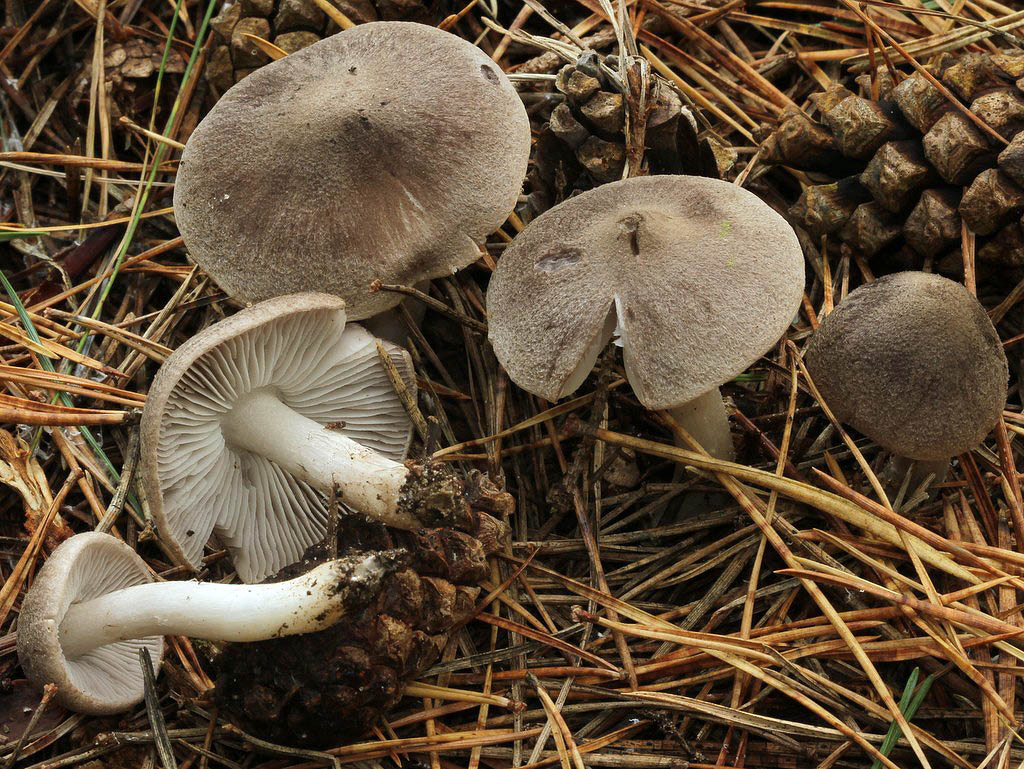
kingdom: Fungi
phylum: Basidiomycota
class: Agaricomycetes
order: Agaricales
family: Tricholomataceae
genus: Tricholoma
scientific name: Tricholoma terreum
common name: jordfarvet ridderhat
